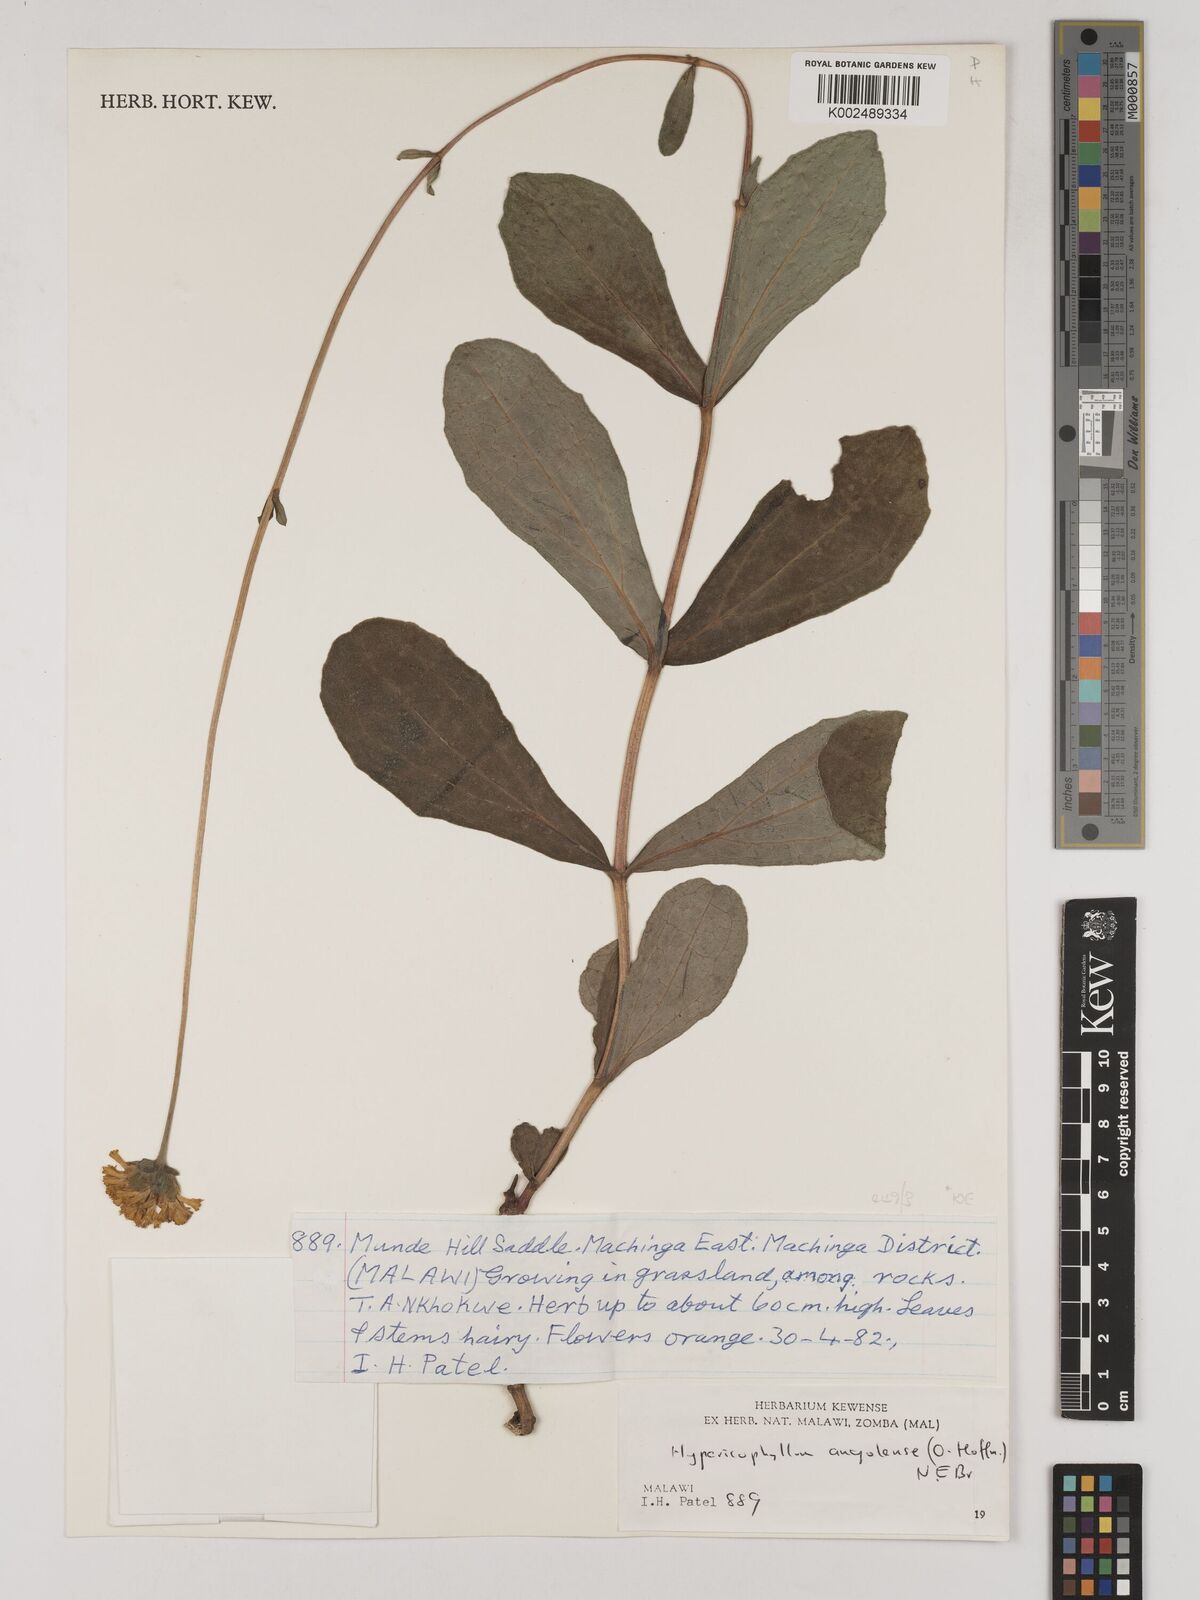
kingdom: Plantae
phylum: Tracheophyta
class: Magnoliopsida
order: Asterales
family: Asteraceae
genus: Hypericophyllum
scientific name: Hypericophyllum angolense
